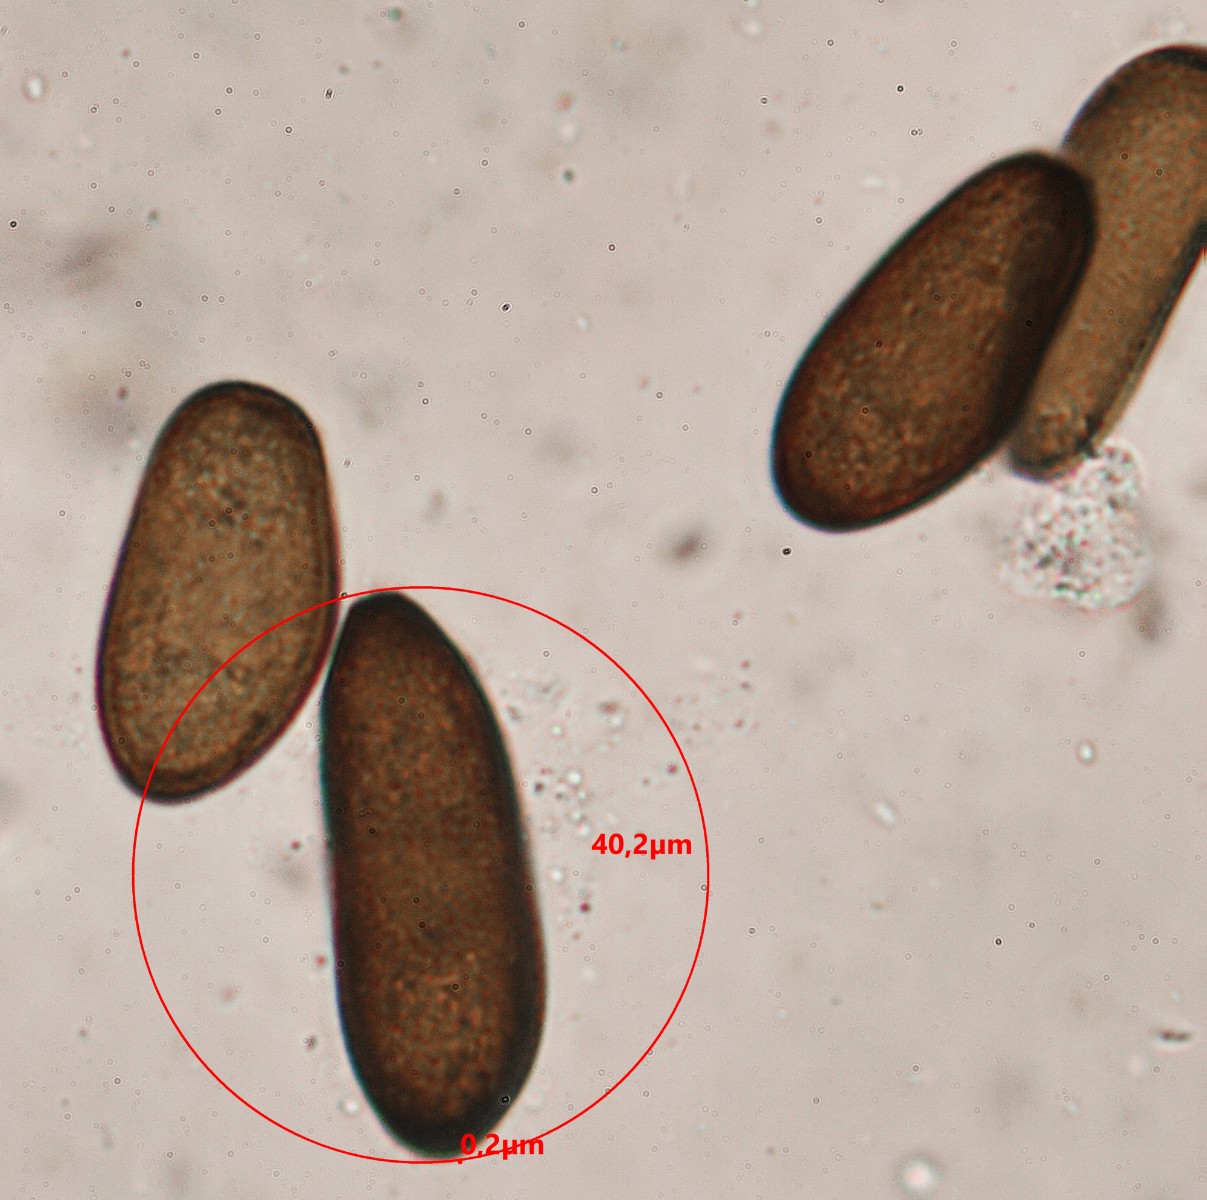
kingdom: Fungi
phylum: Ascomycota
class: Dothideomycetes
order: Botryosphaeriales
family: Botryosphaeriaceae
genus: Sphaeropsis
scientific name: Sphaeropsis sapinea
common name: Sphaeropsis blight
